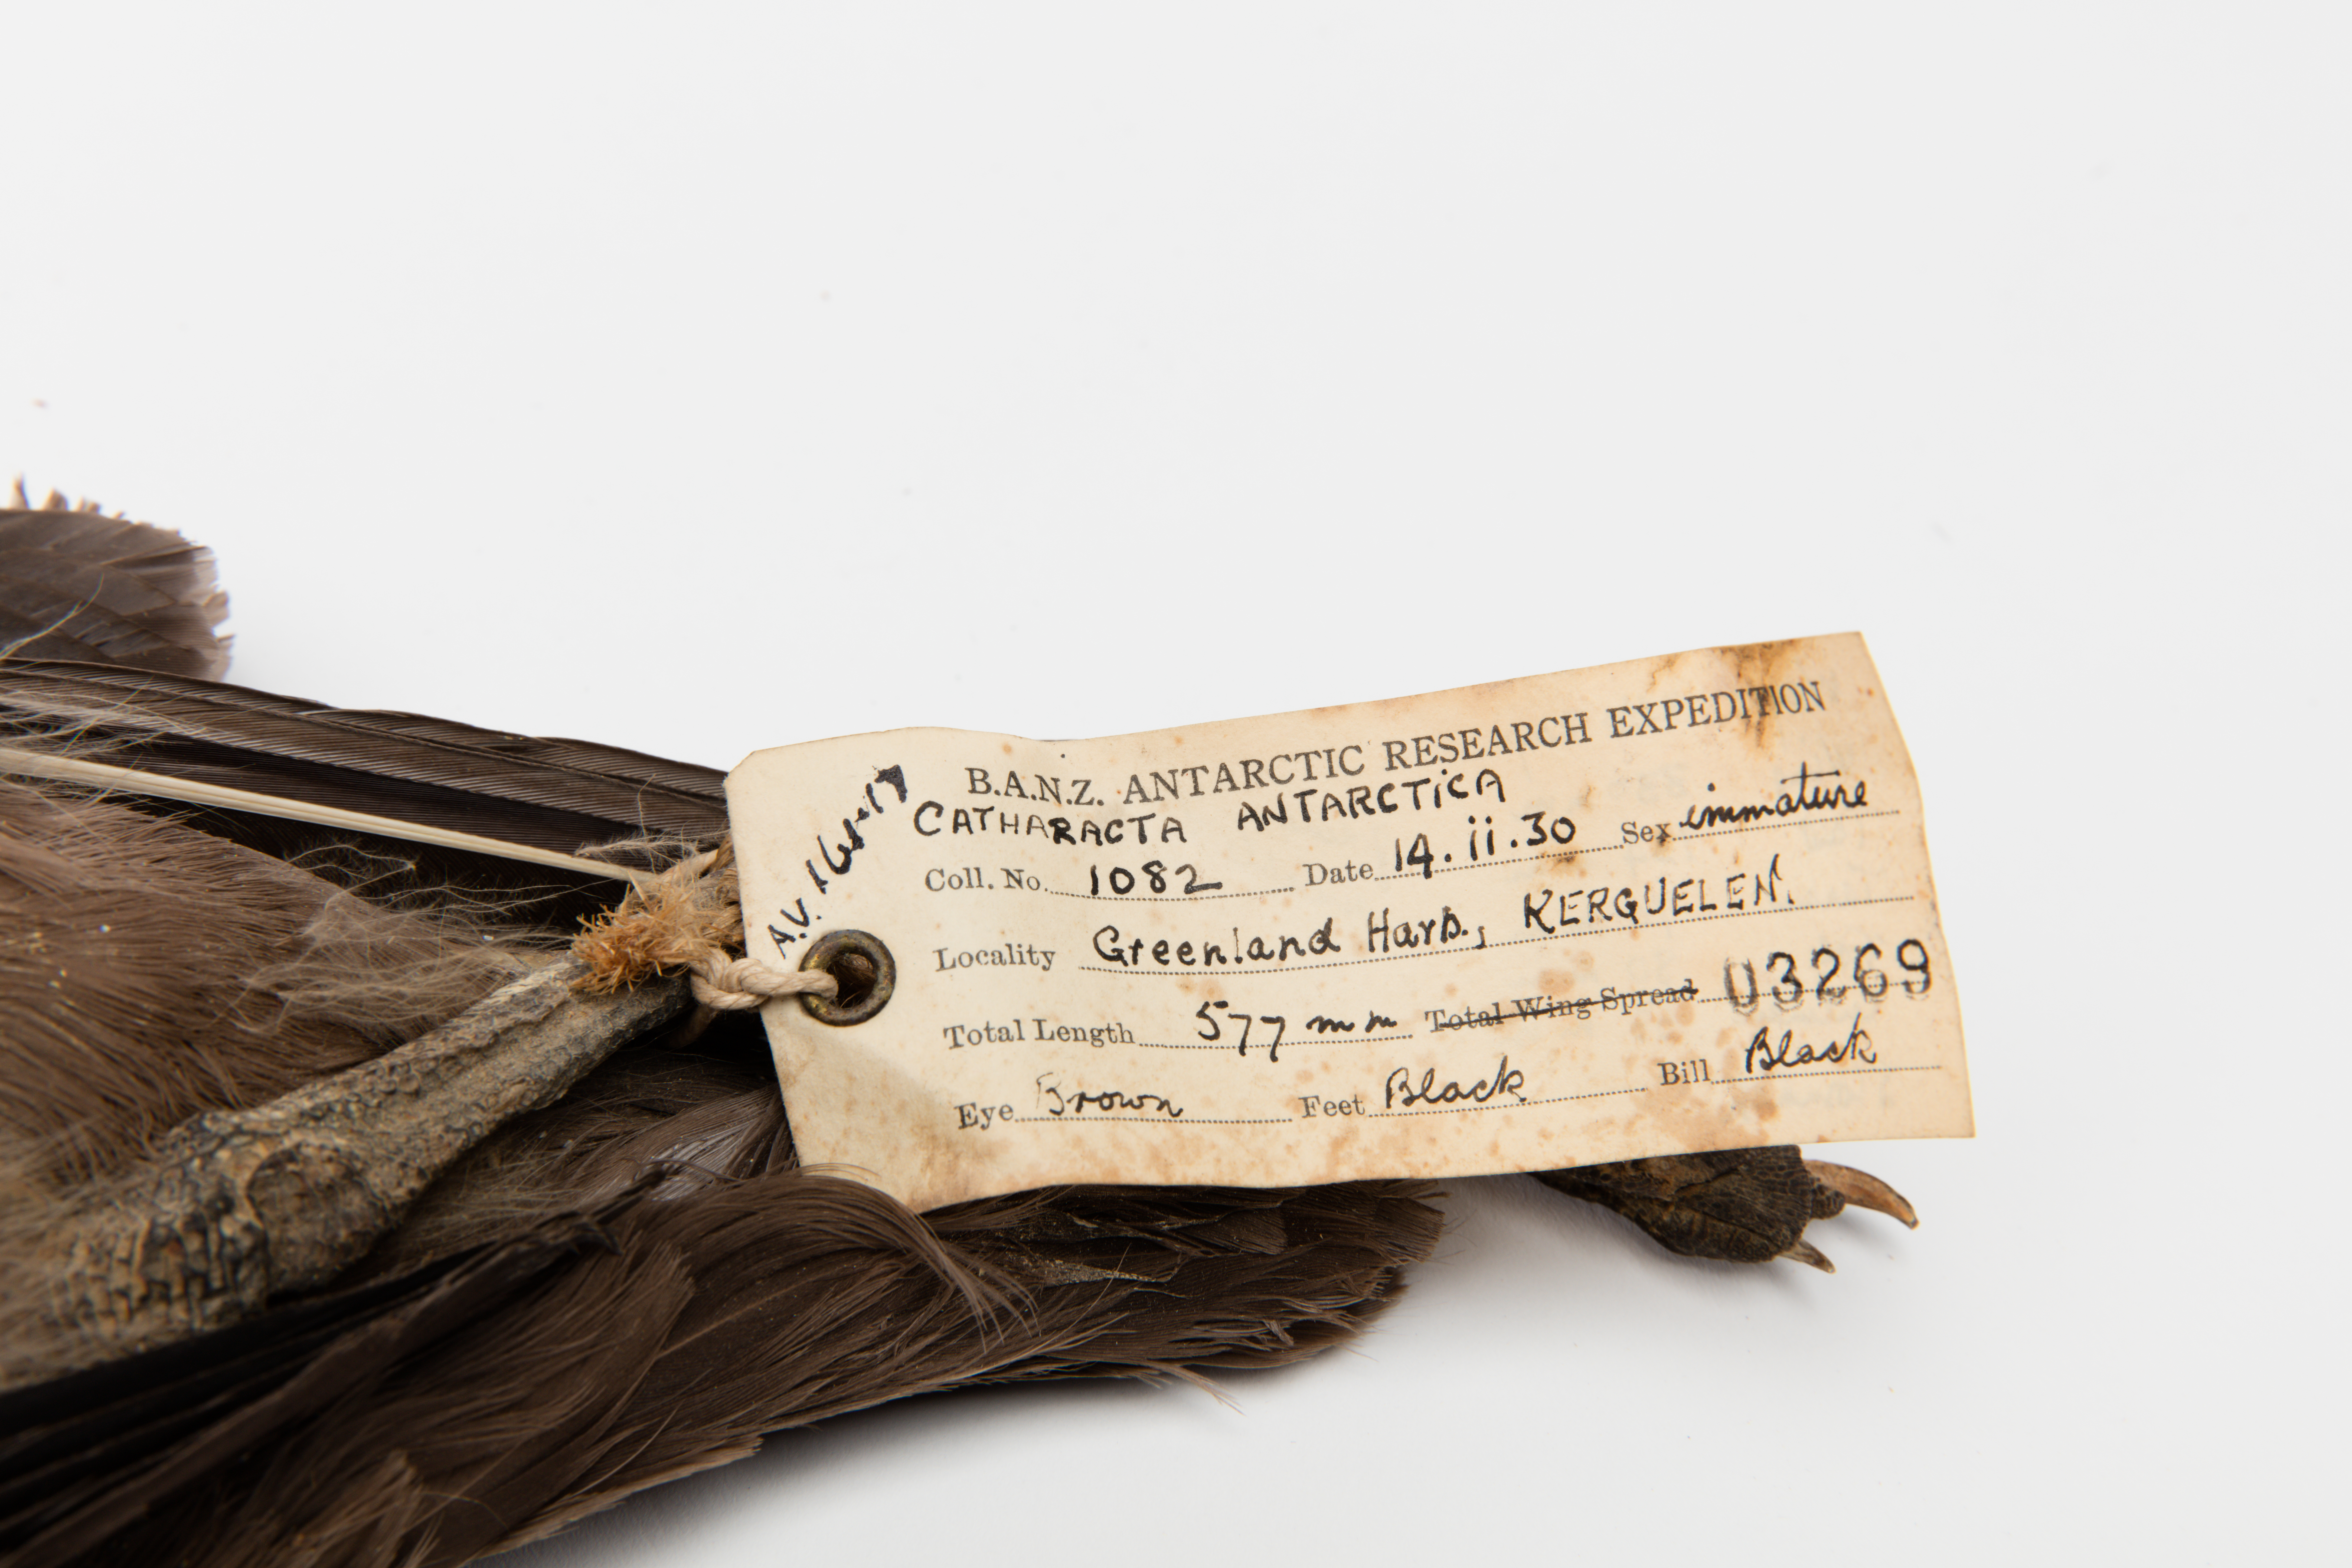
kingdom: Animalia
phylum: Chordata
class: Aves
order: Charadriiformes
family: Stercorariidae
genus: Stercorarius
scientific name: Stercorarius antarcticus
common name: Brown skua
